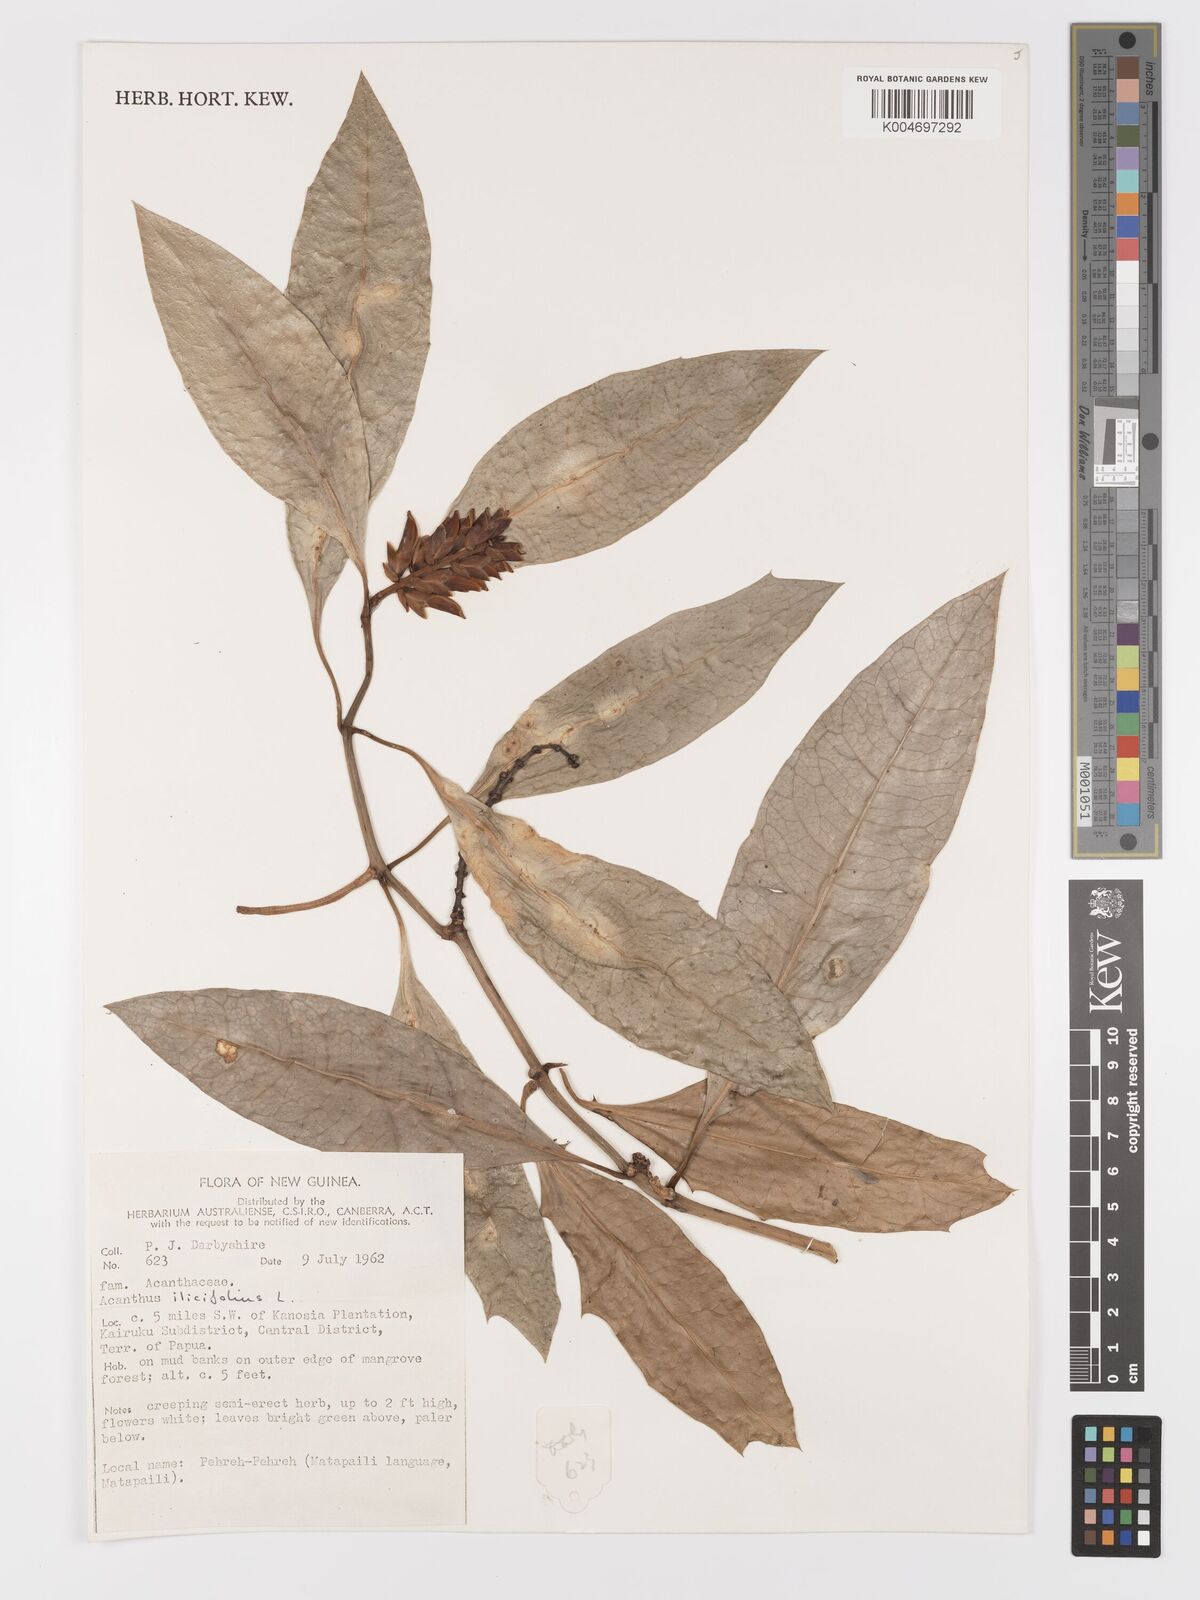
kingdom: Plantae
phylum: Tracheophyta
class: Magnoliopsida
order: Lamiales
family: Acanthaceae
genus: Acanthus
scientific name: Acanthus ilicifolius
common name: Holy mangrove
